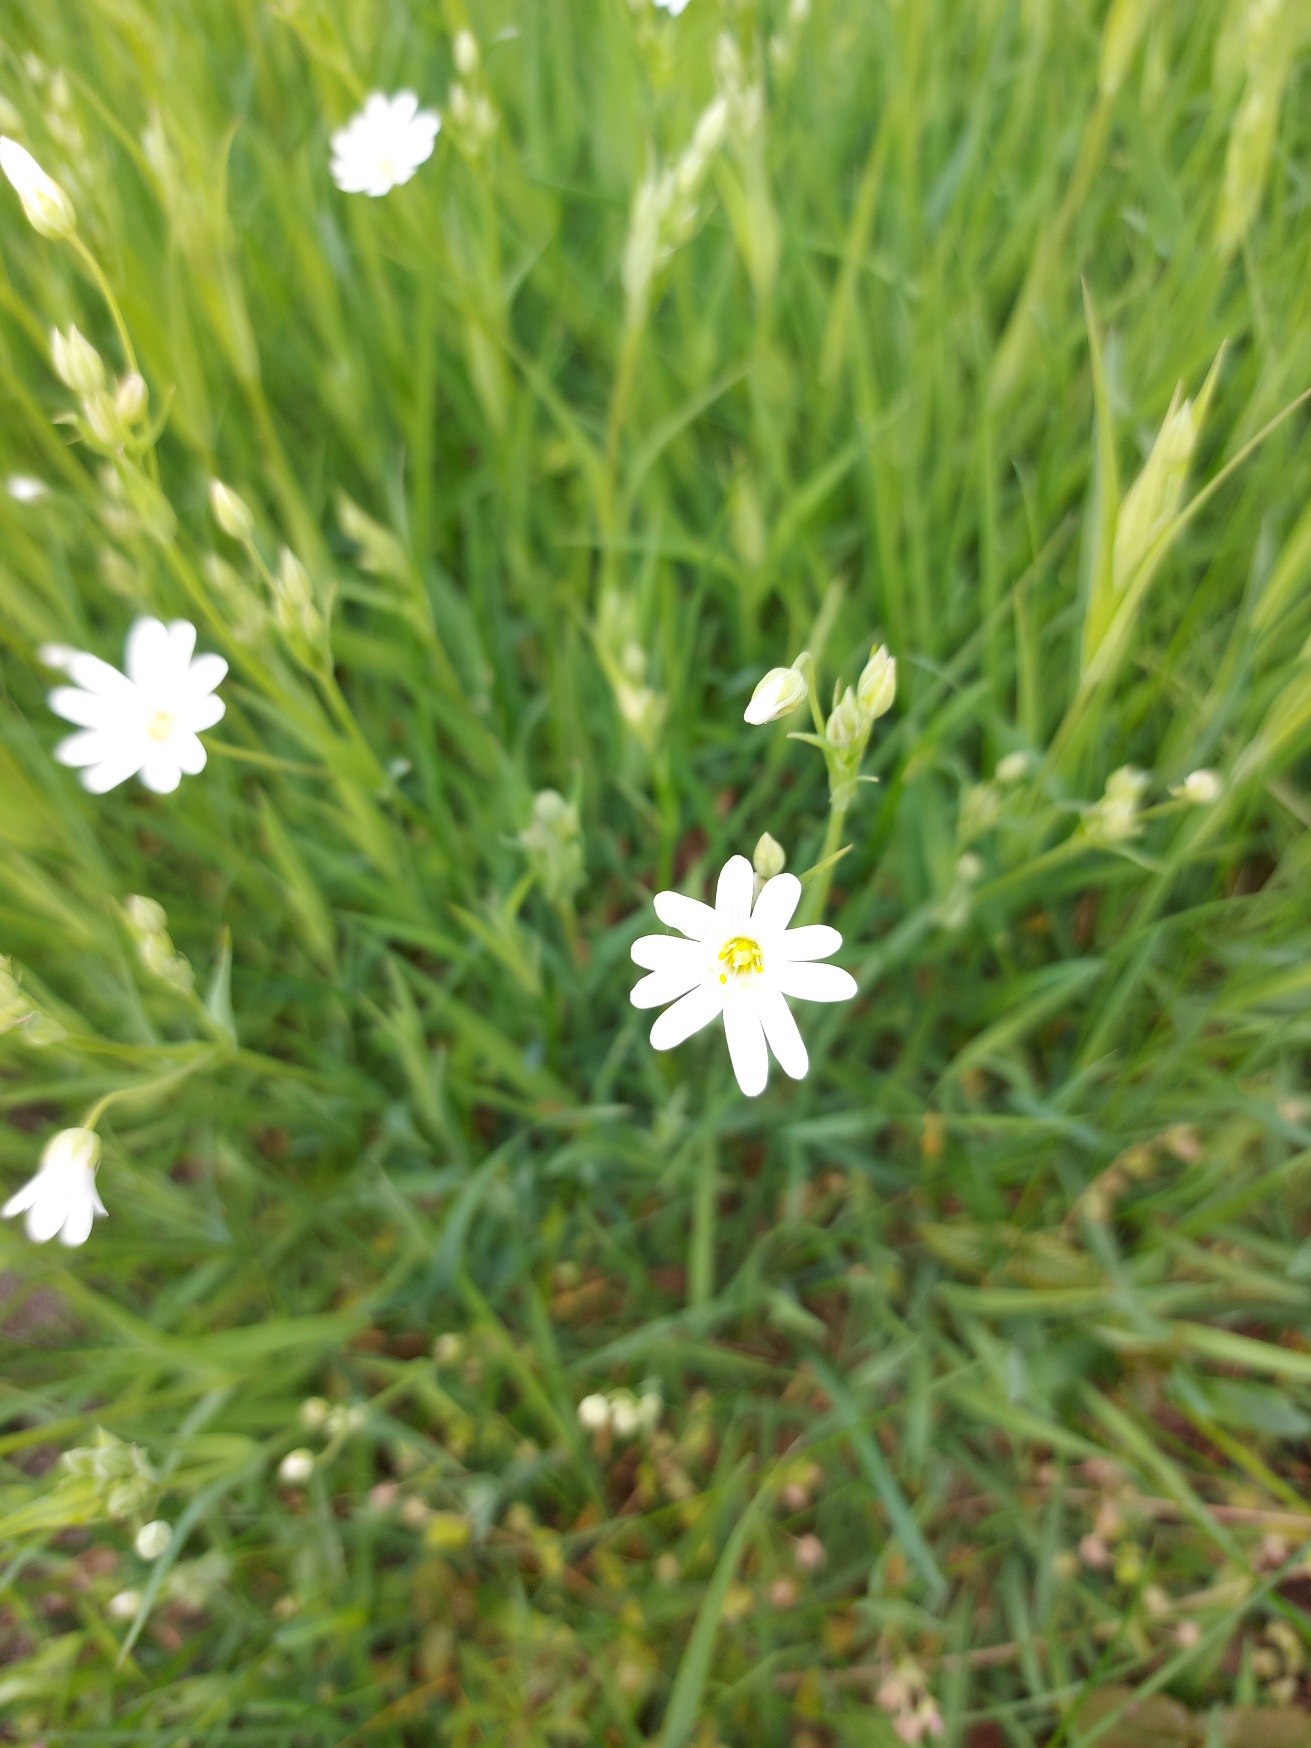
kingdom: Plantae
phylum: Tracheophyta
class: Magnoliopsida
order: Caryophyllales
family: Caryophyllaceae
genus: Rabelera
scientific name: Rabelera holostea
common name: Stor fladstjerne
